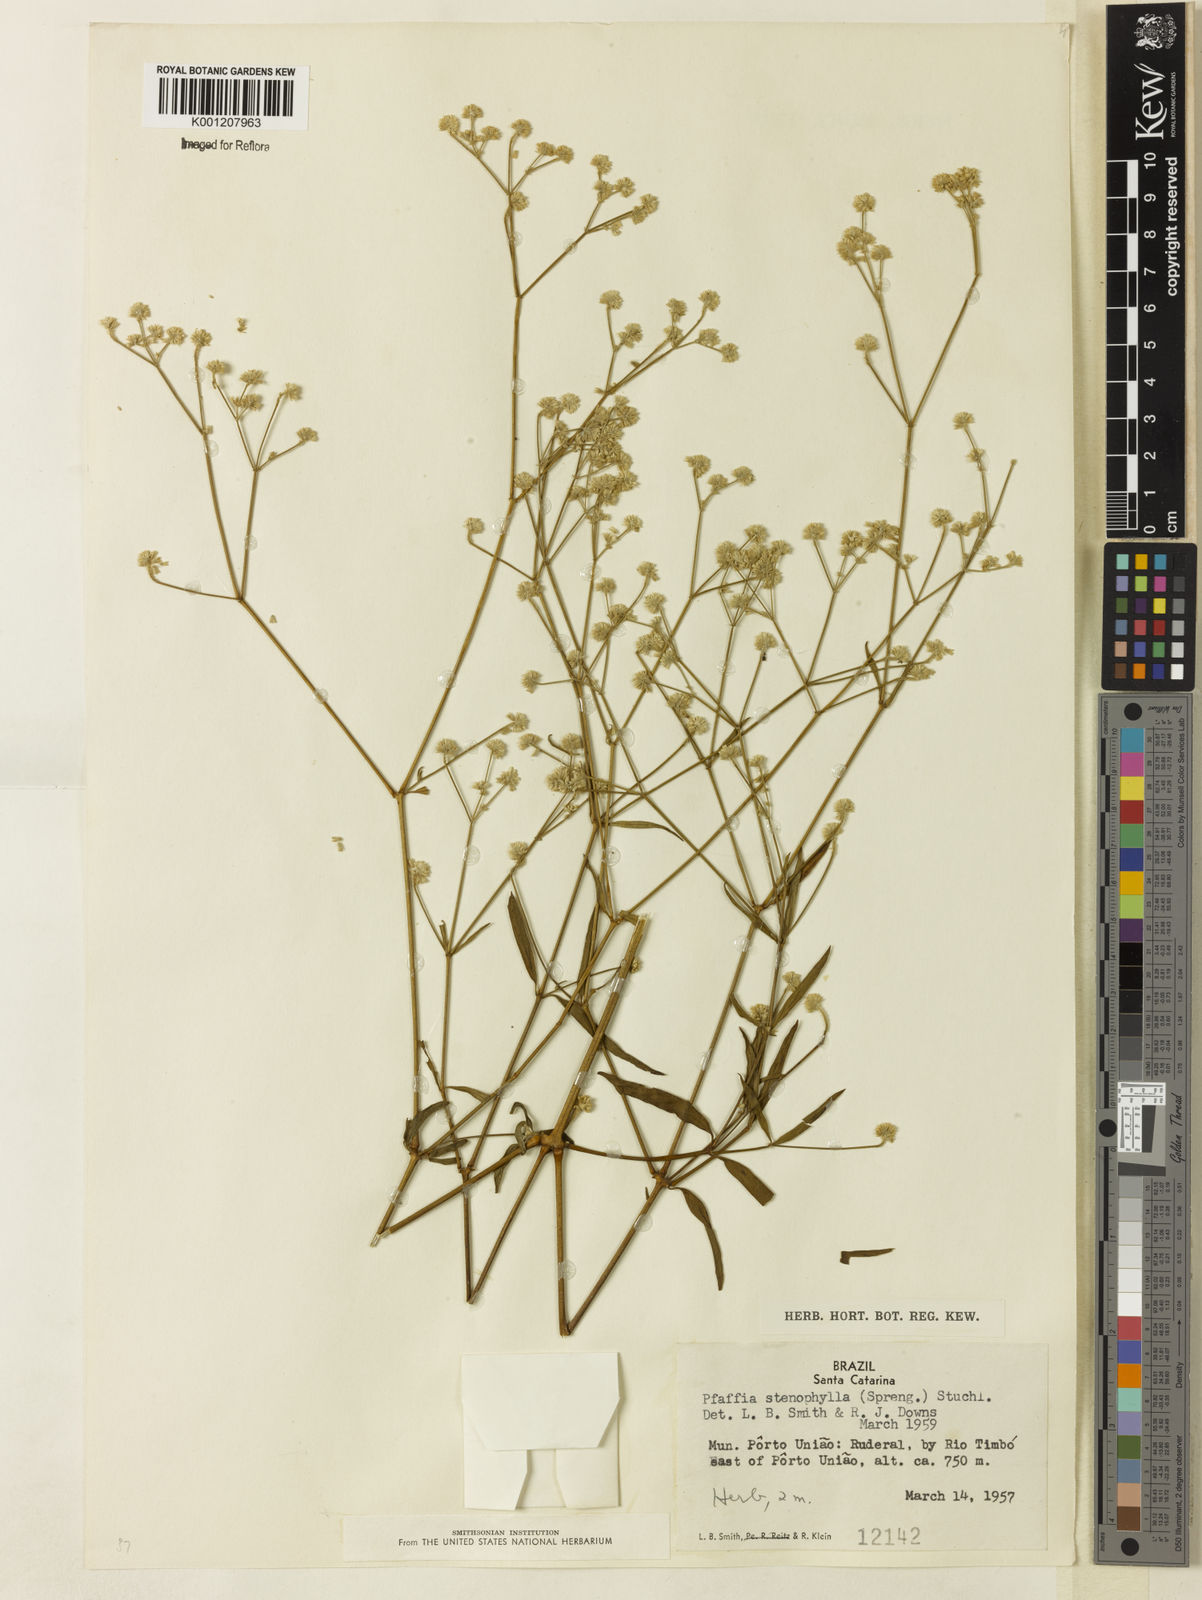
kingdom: Plantae
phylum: Tracheophyta
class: Magnoliopsida
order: Caryophyllales
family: Amaranthaceae
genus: Pfaffia
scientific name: Pfaffia
